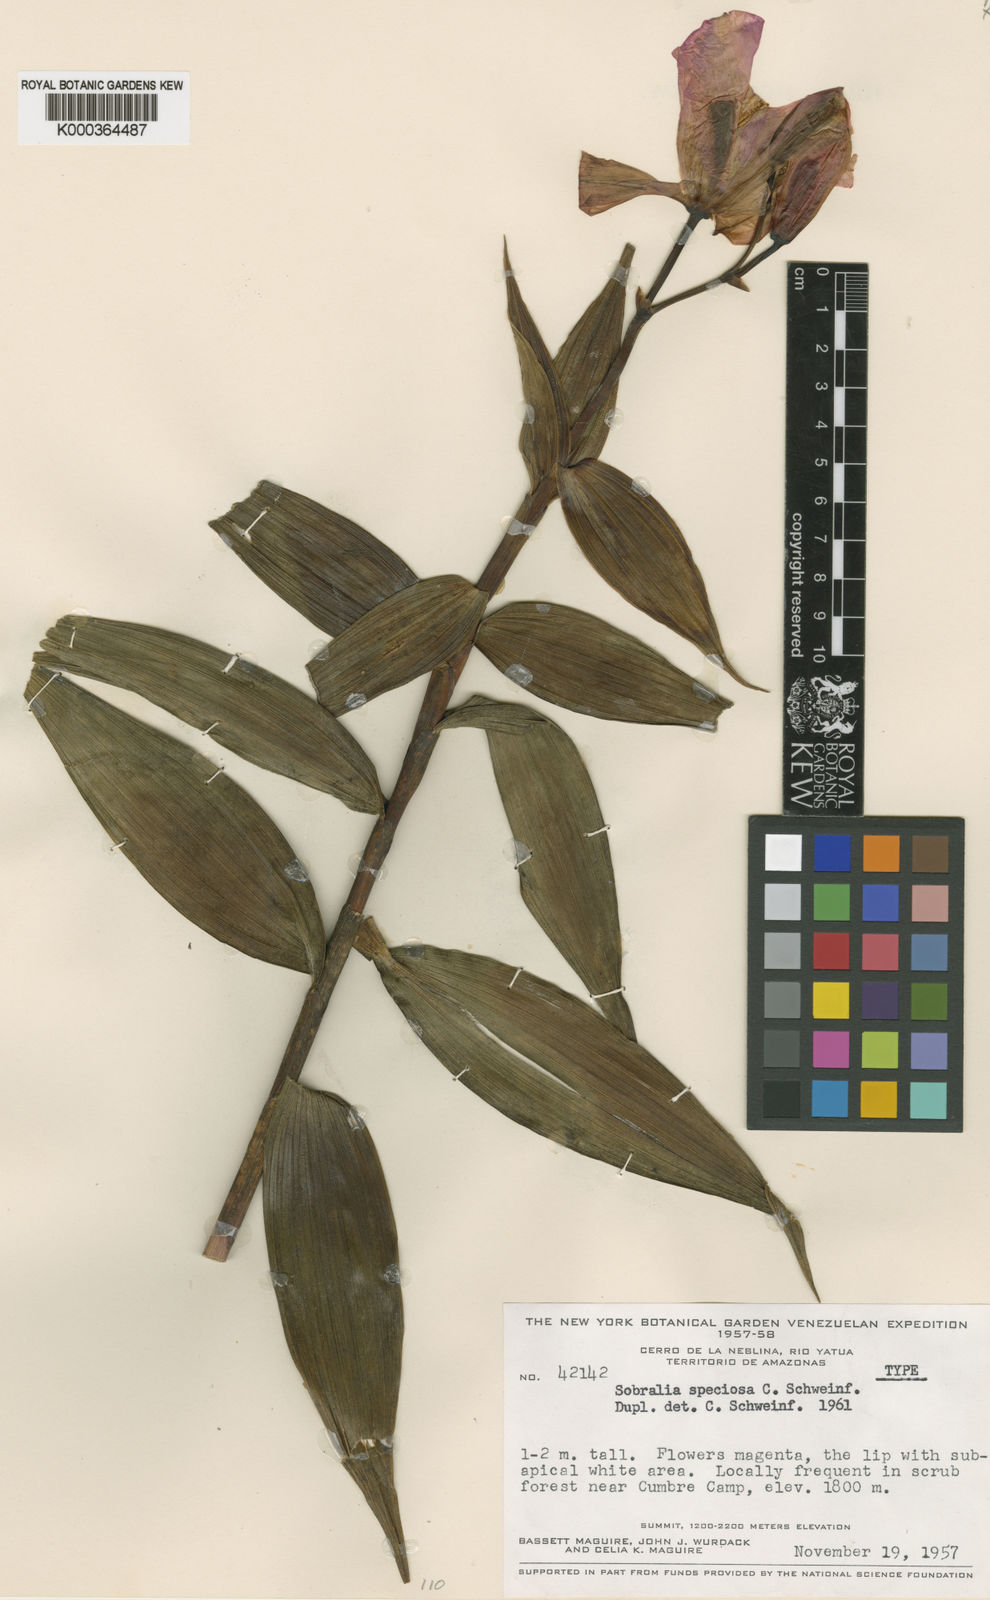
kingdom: Plantae
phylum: Tracheophyta
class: Liliopsida
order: Asparagales
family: Orchidaceae
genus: Sobralia
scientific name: Sobralia speciosa
